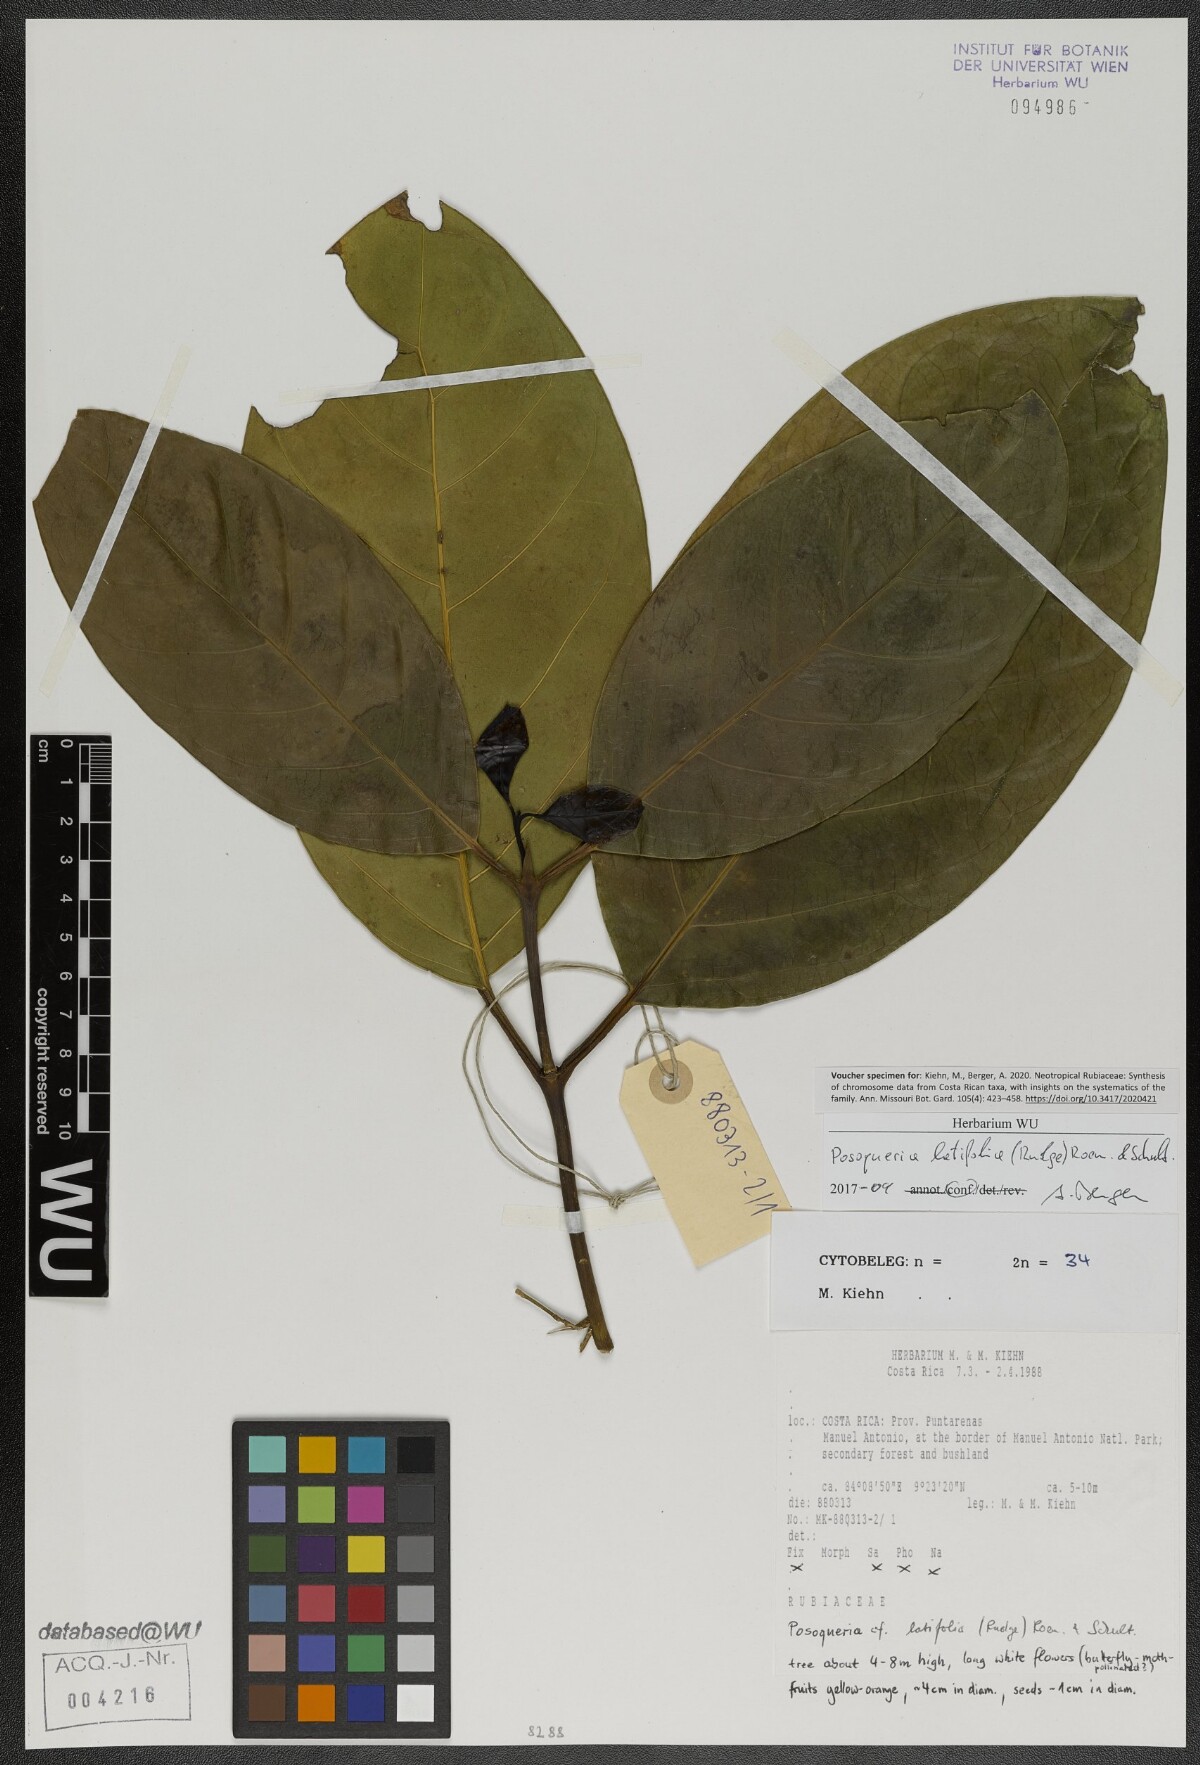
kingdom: Plantae
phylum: Tracheophyta
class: Magnoliopsida
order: Gentianales
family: Rubiaceae
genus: Posoqueria
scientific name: Posoqueria latifolia
